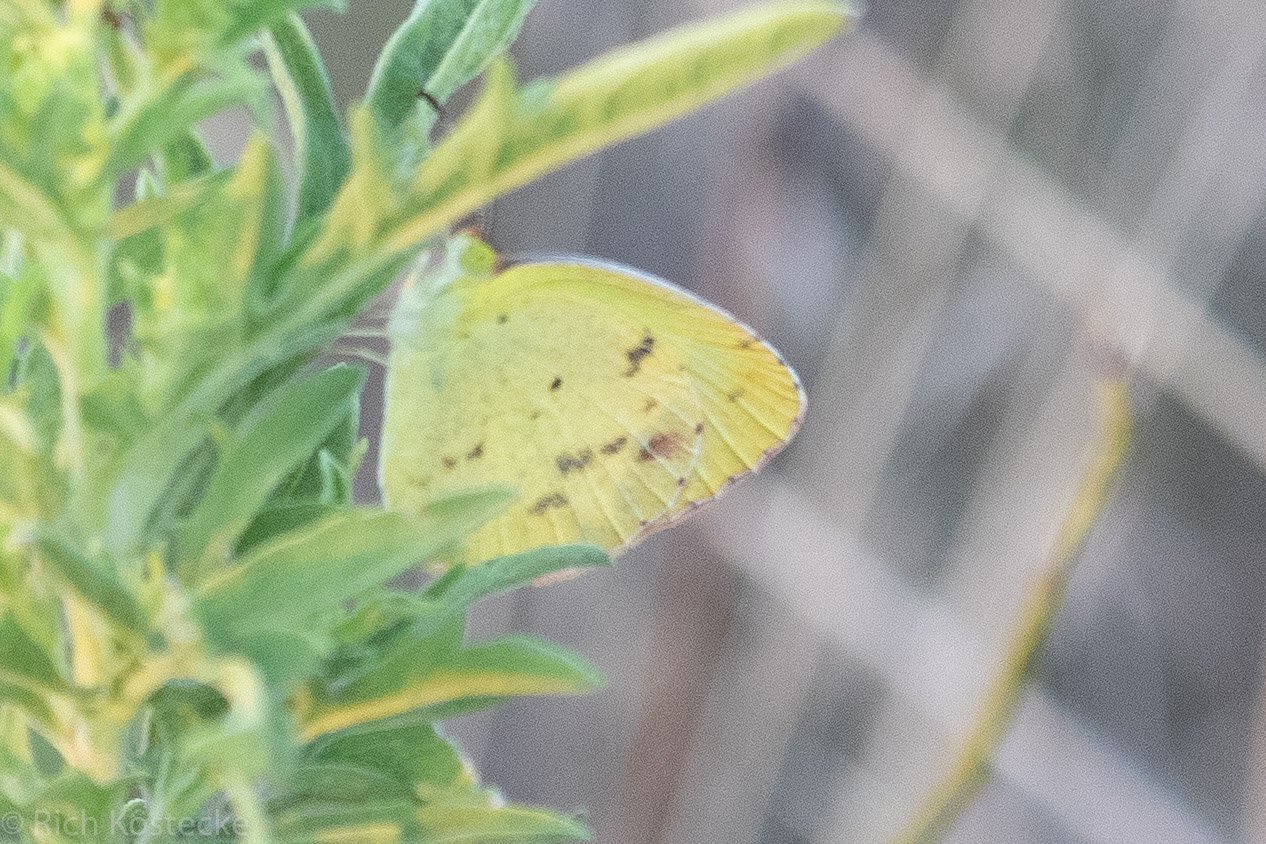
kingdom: Animalia
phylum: Arthropoda
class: Insecta
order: Lepidoptera
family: Pieridae
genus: Pyrisitia
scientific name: Pyrisitia lisa
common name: Little Yellow
